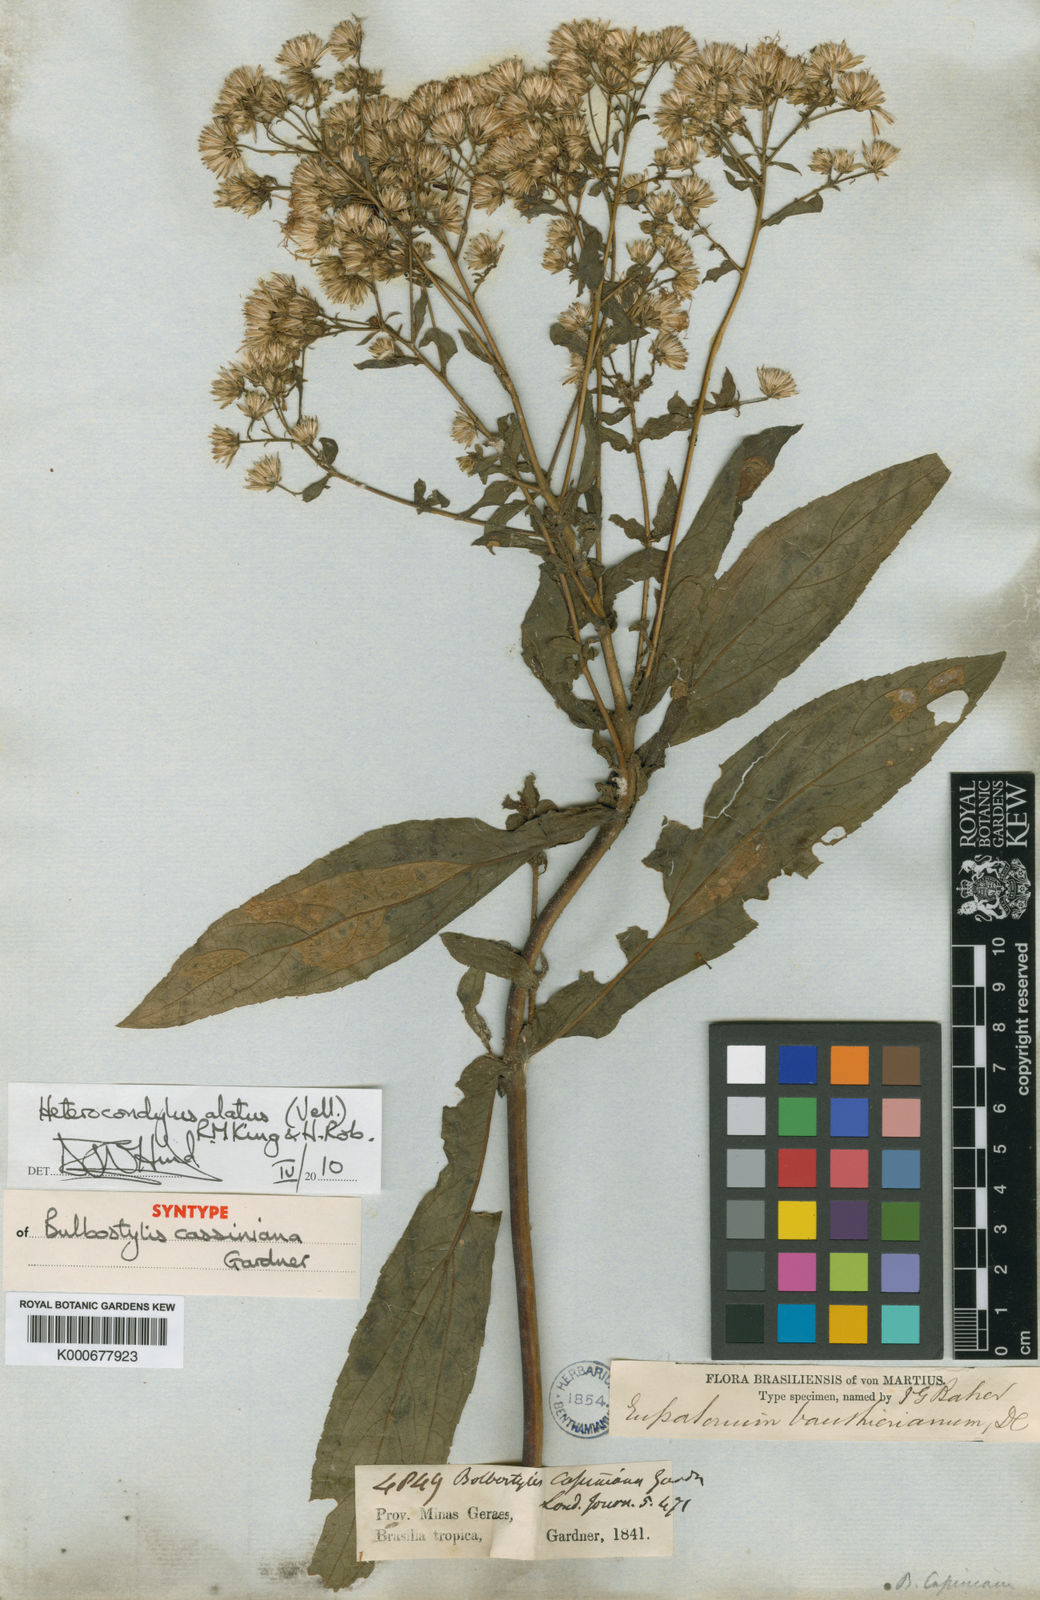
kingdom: Plantae
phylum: Tracheophyta
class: Magnoliopsida
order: Asterales
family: Asteraceae
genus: Heterocondylus
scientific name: Heterocondylus alatus
